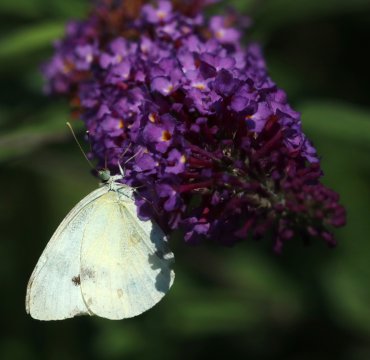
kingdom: Animalia
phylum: Arthropoda
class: Insecta
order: Lepidoptera
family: Pieridae
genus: Pieris
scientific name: Pieris rapae
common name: Cabbage White
